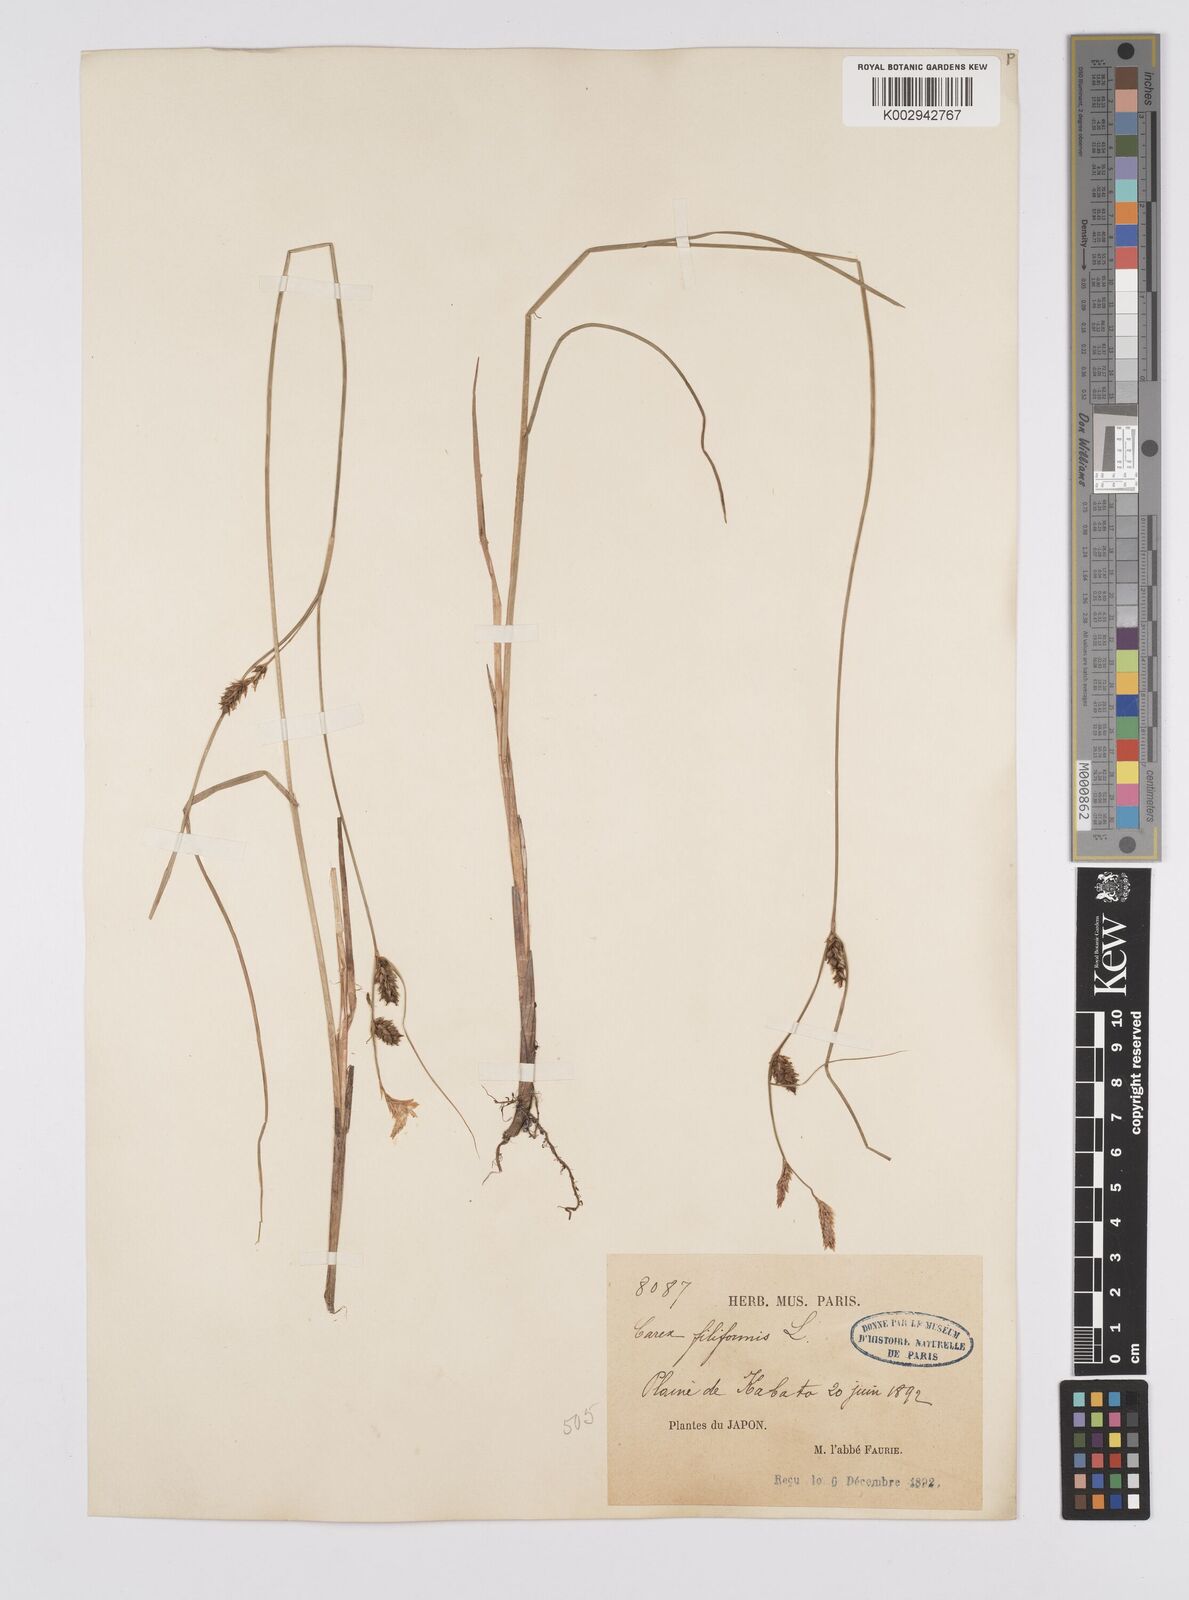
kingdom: Plantae
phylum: Tracheophyta
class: Liliopsida
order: Poales
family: Cyperaceae
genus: Carex
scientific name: Carex lasiocarpa
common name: Slender sedge
